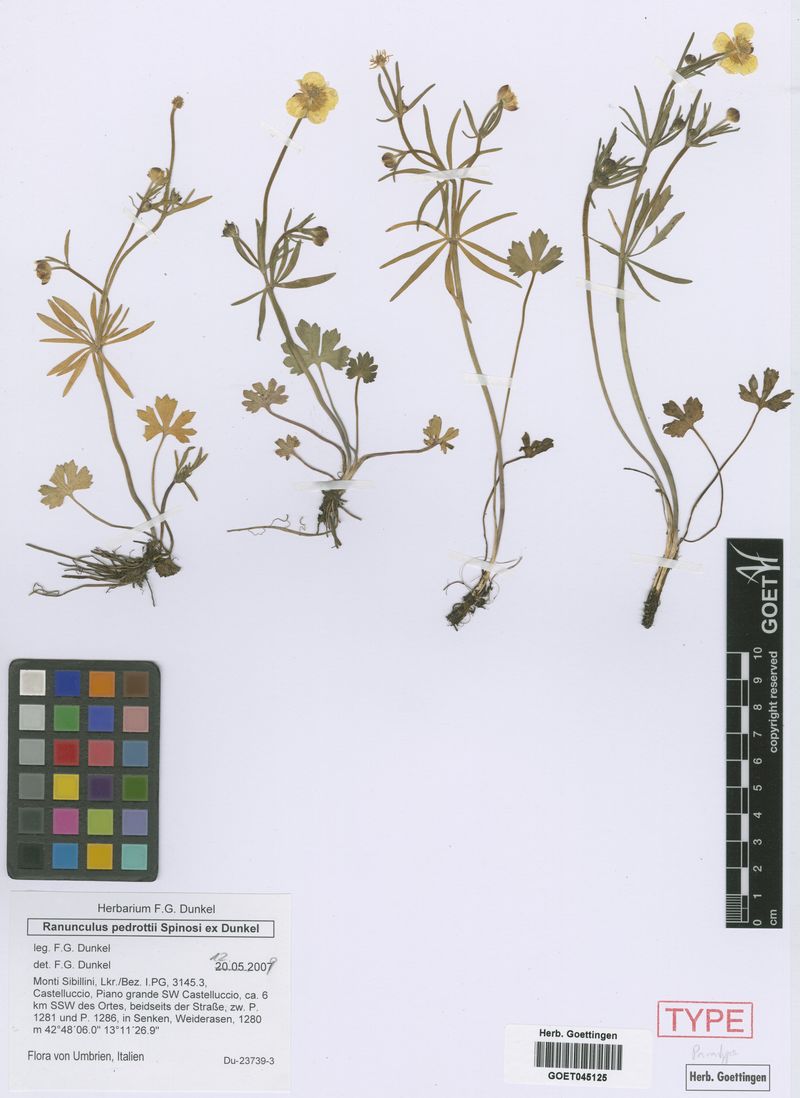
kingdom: Plantae
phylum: Tracheophyta
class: Magnoliopsida
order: Ranunculales
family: Ranunculaceae
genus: Ranunculus
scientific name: Ranunculus pedrottii
